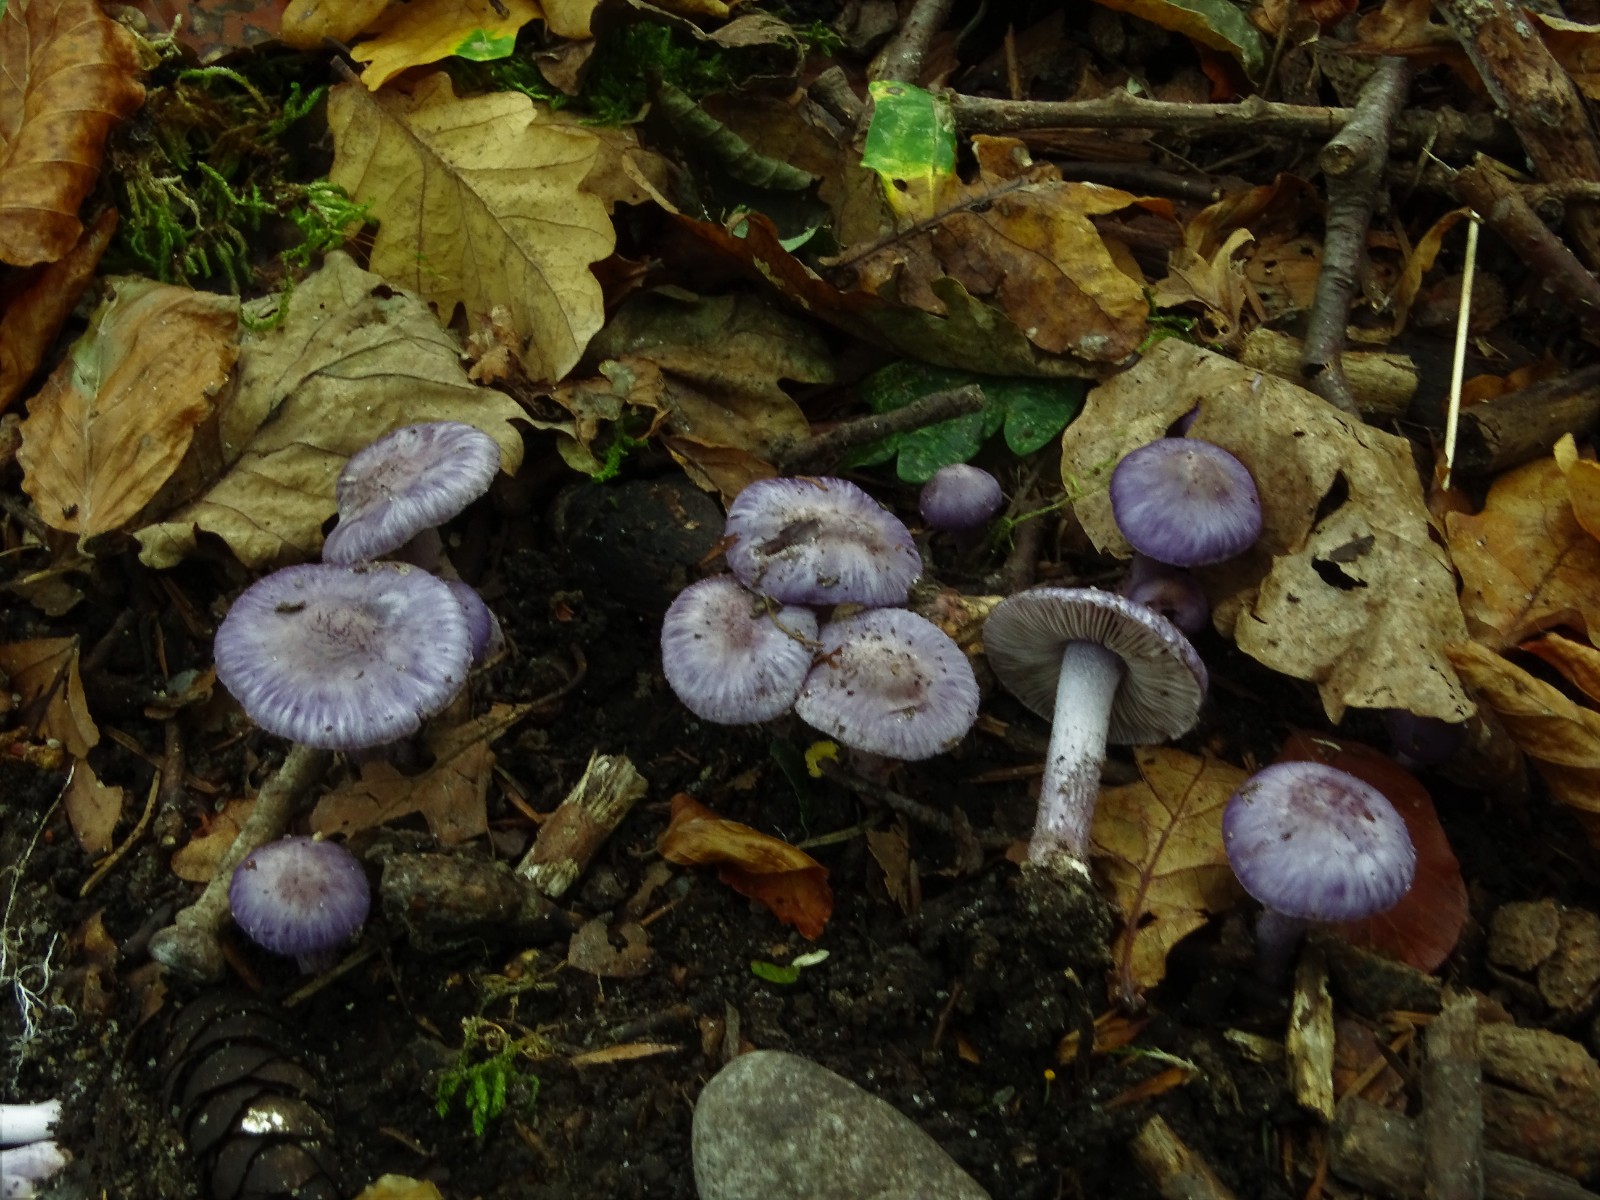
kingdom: Fungi
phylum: Basidiomycota
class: Agaricomycetes
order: Agaricales
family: Inocybaceae
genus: Inocybe
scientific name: Inocybe ionolepis
